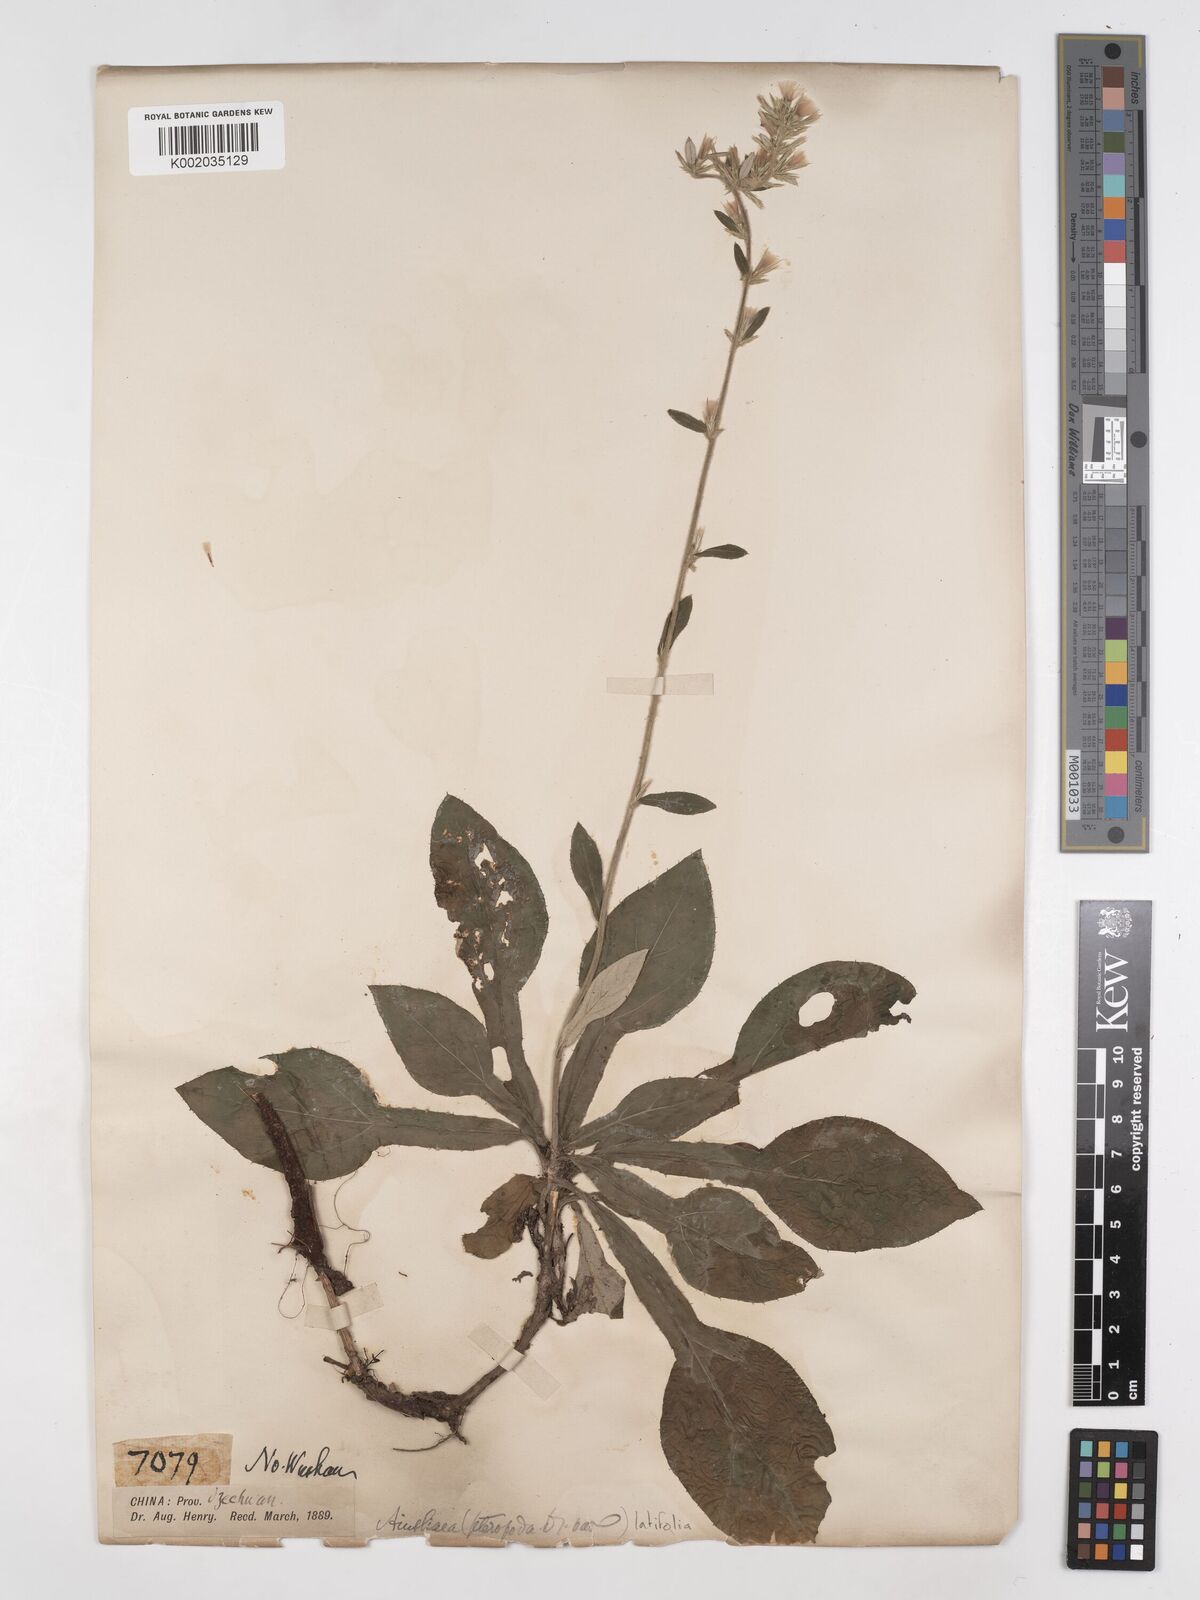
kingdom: Plantae
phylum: Tracheophyta
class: Magnoliopsida
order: Asterales
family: Asteraceae
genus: Ainsliaea
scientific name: Ainsliaea latifolia
